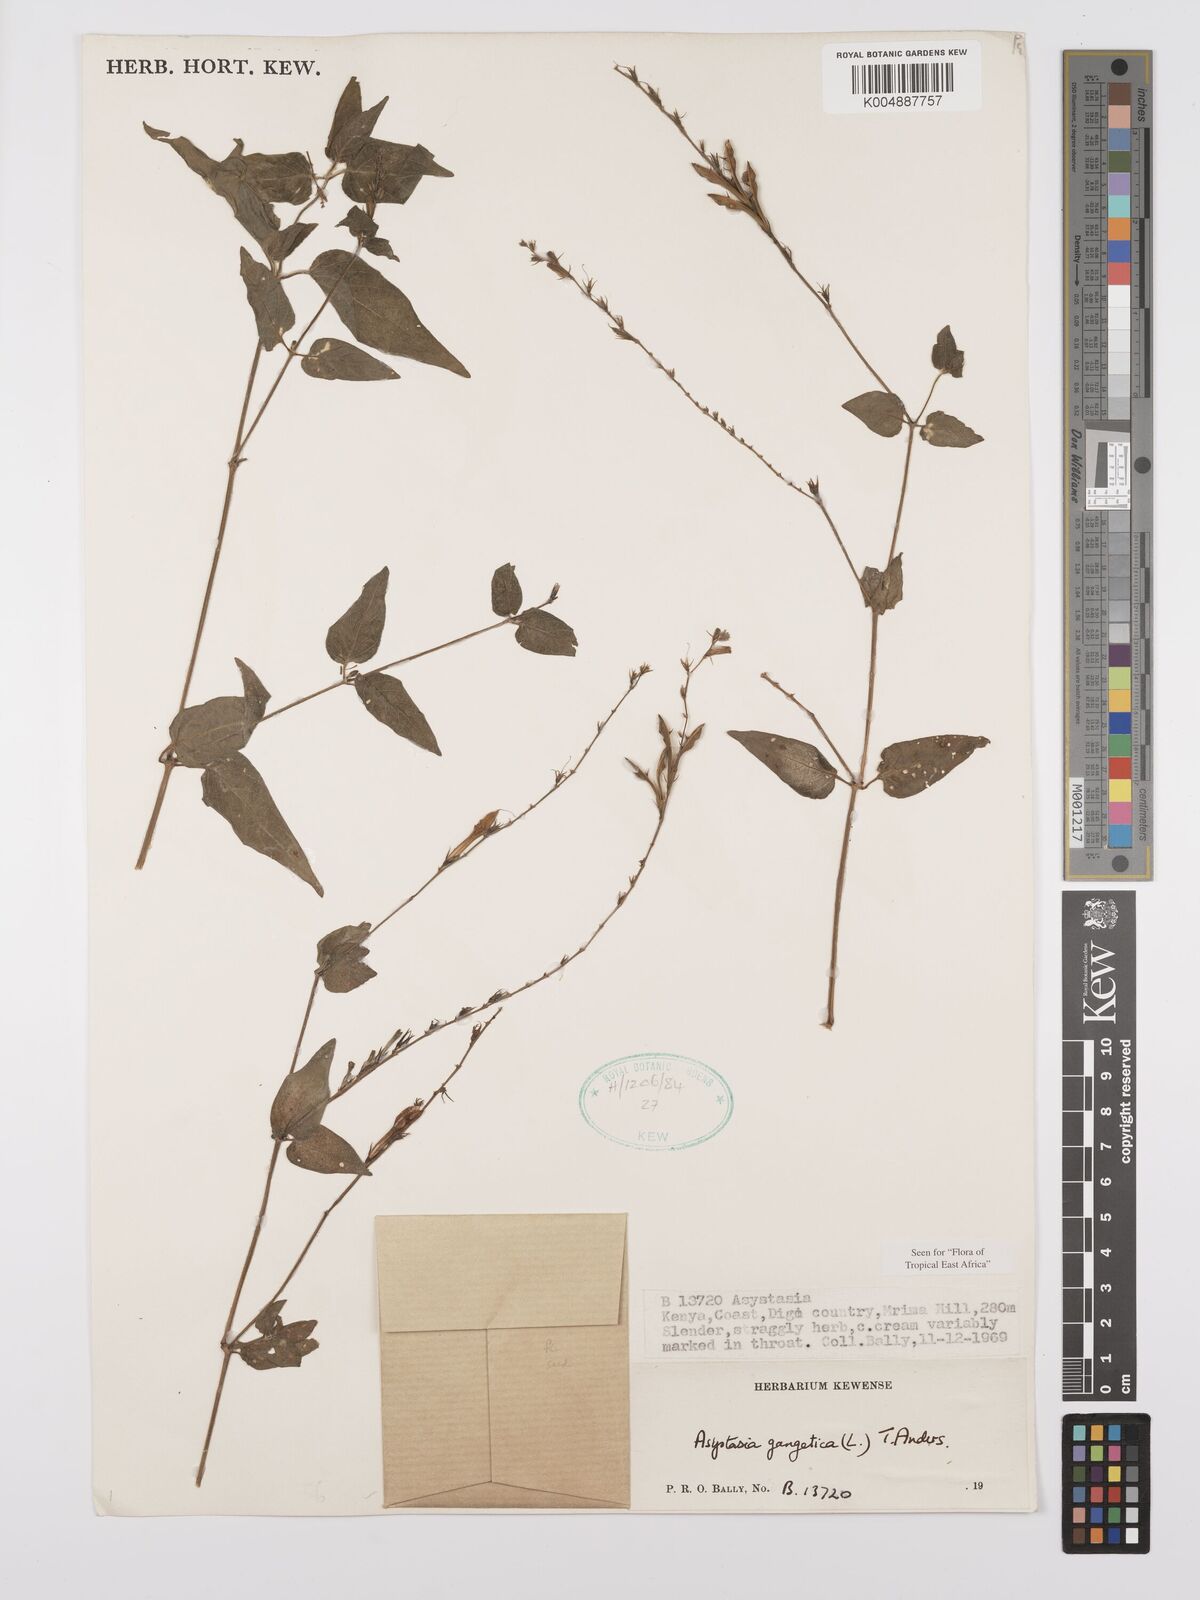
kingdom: Plantae
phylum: Tracheophyta
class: Magnoliopsida
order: Lamiales
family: Acanthaceae
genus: Asystasia
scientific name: Asystasia gangetica
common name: Chinese violet
